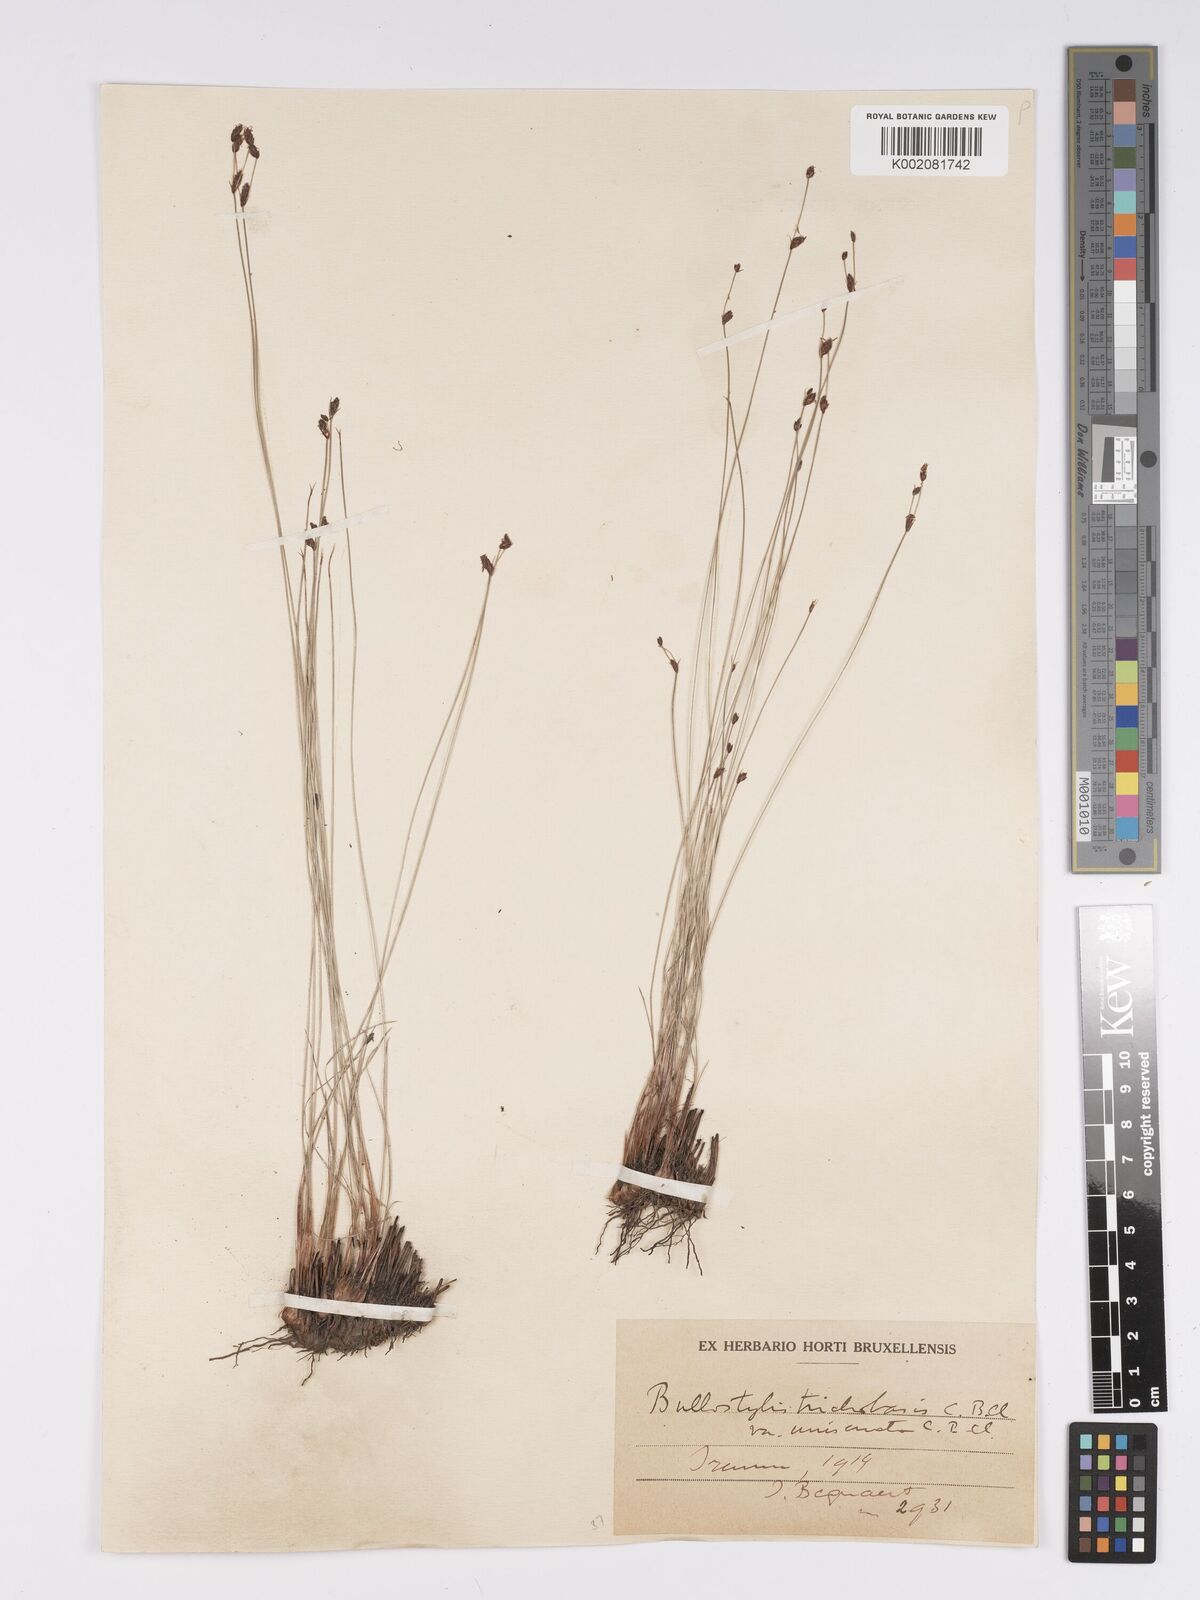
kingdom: Plantae
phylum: Tracheophyta
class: Liliopsida
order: Poales
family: Cyperaceae
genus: Bulbostylis
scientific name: Bulbostylis oritrephes
